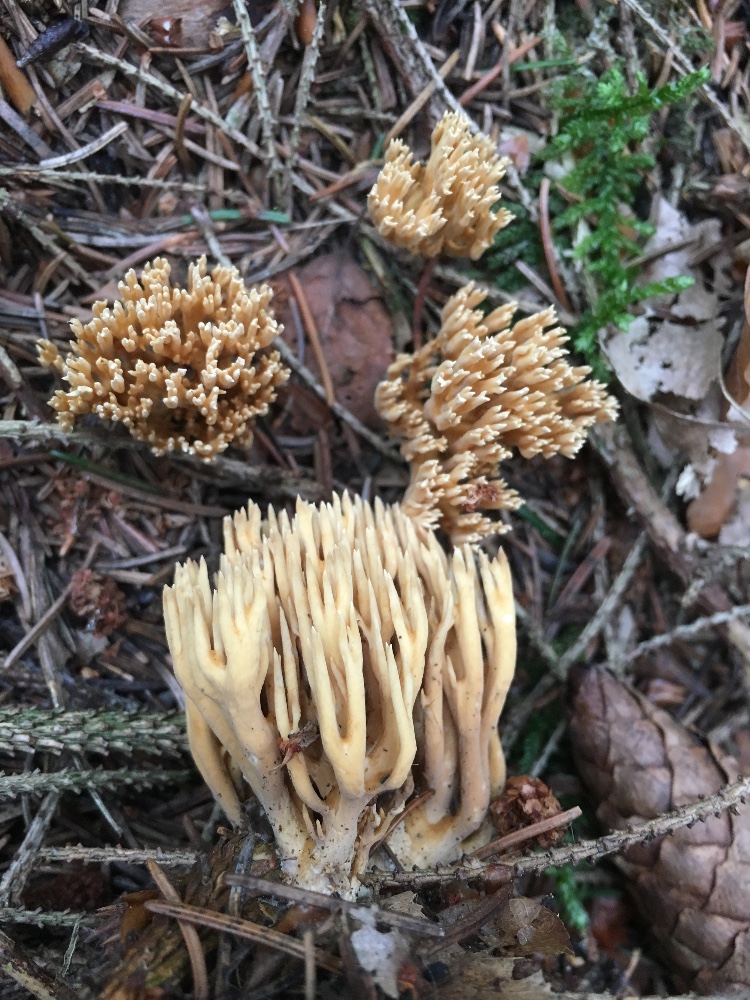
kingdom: Fungi
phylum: Basidiomycota
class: Agaricomycetes
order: Gomphales
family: Gomphaceae
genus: Phaeoclavulina
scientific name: Phaeoclavulina eumorpha
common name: gran-koralsvamp
